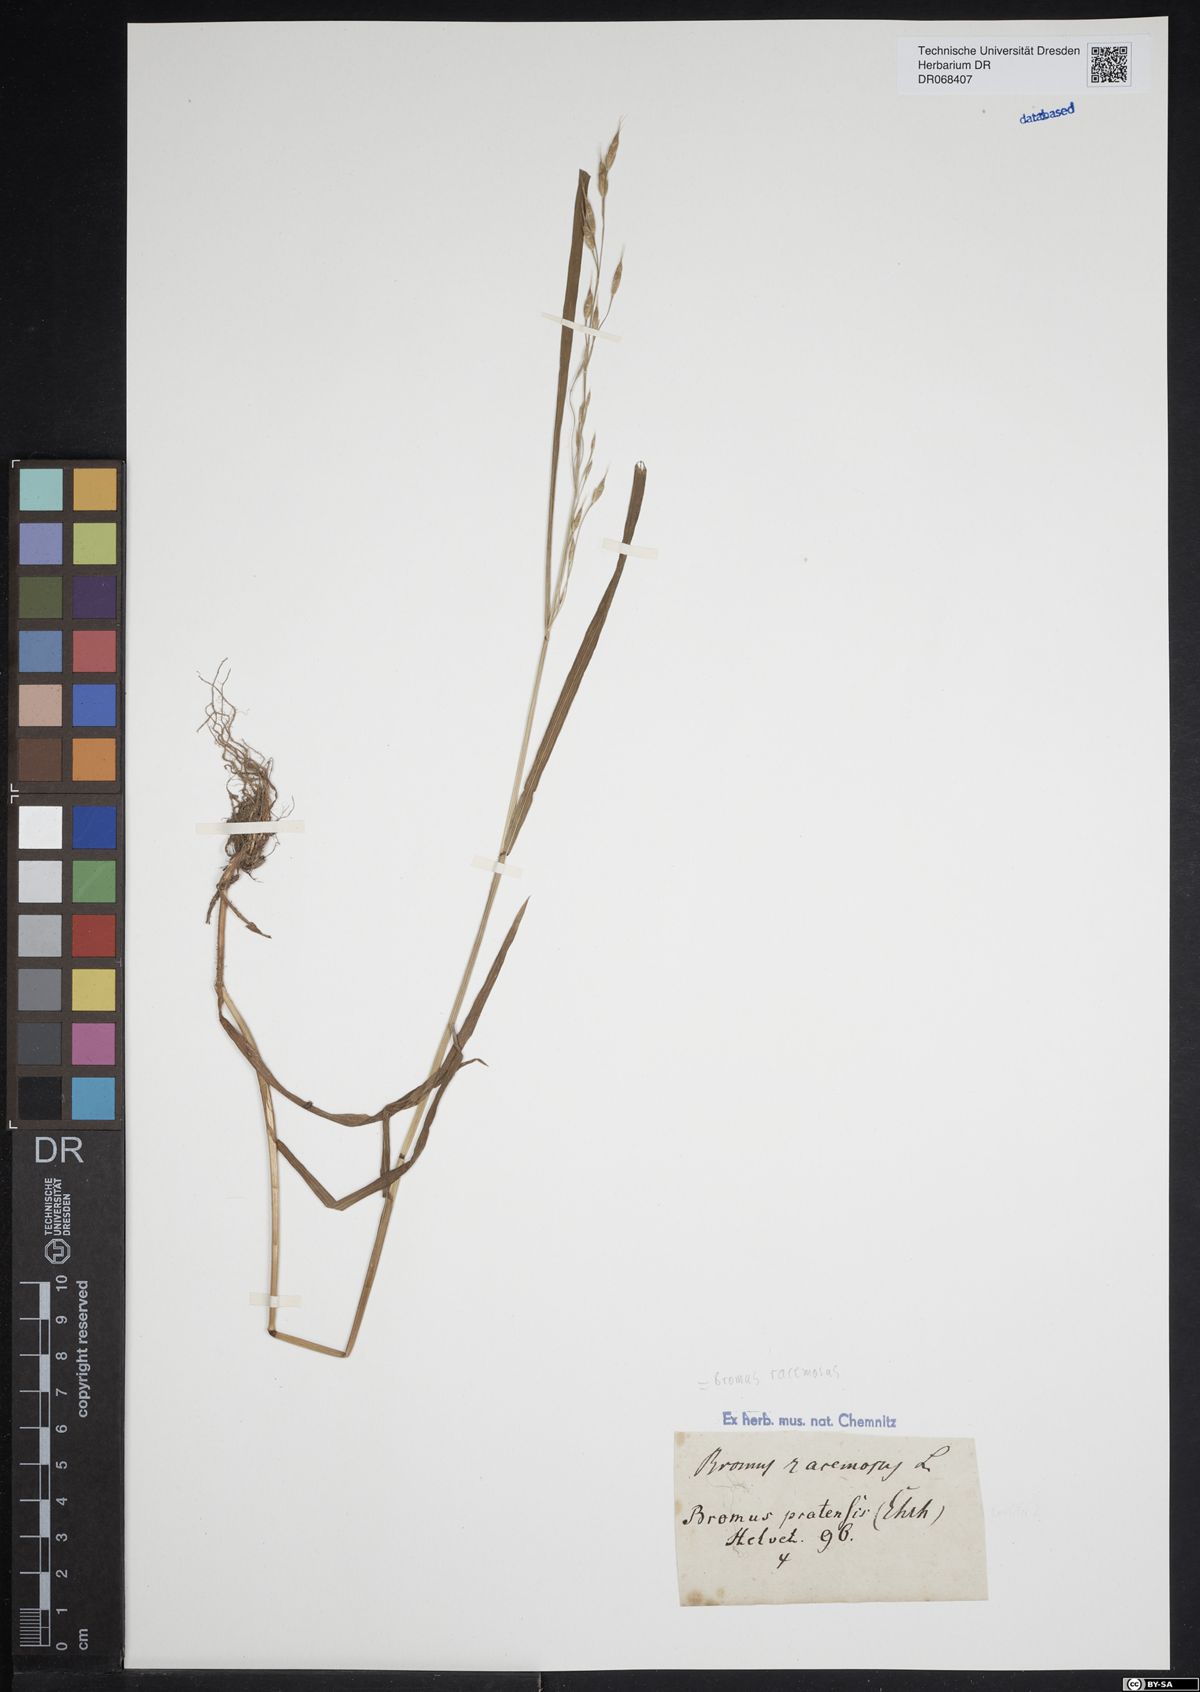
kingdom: Plantae
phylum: Tracheophyta
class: Liliopsida
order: Poales
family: Poaceae
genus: Bromus
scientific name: Bromus racemosus
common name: Bald brome
